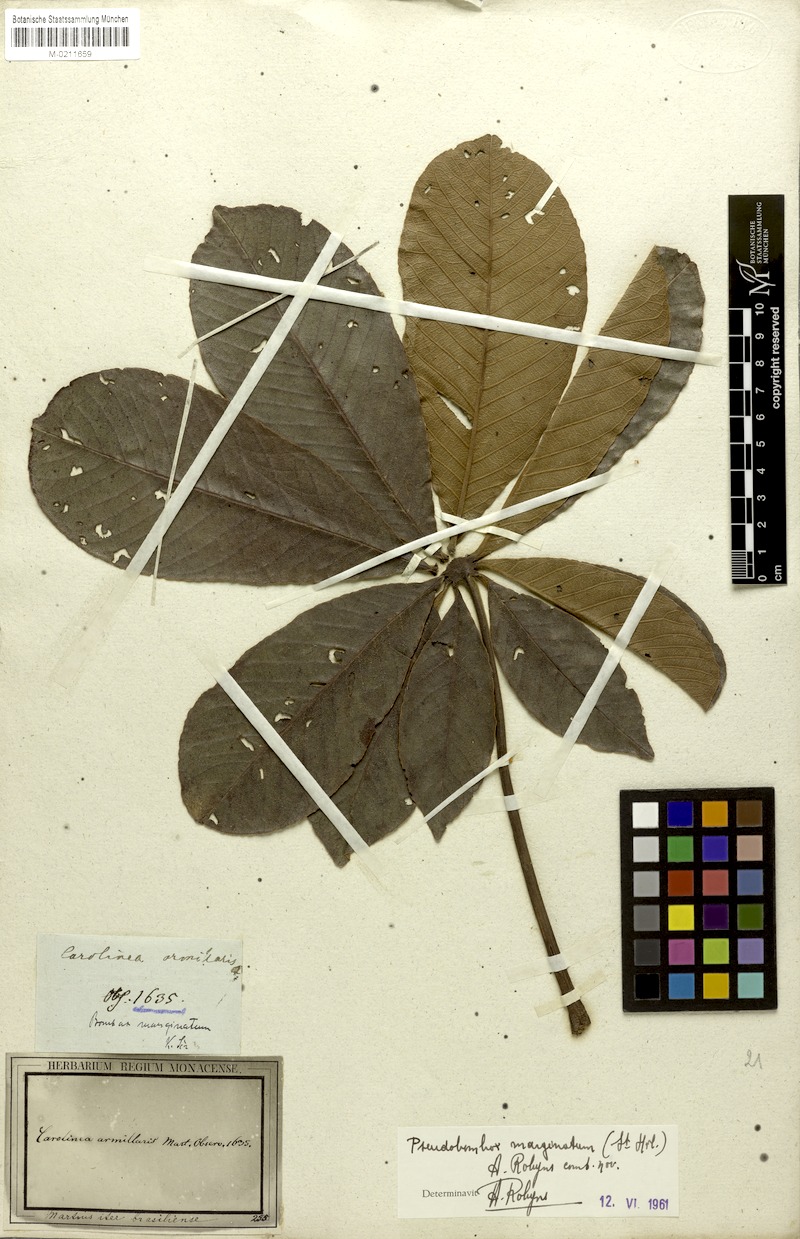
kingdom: Plantae
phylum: Tracheophyta
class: Magnoliopsida
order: Malvales
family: Malvaceae
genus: Pseudobombax
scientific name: Pseudobombax marginatum
